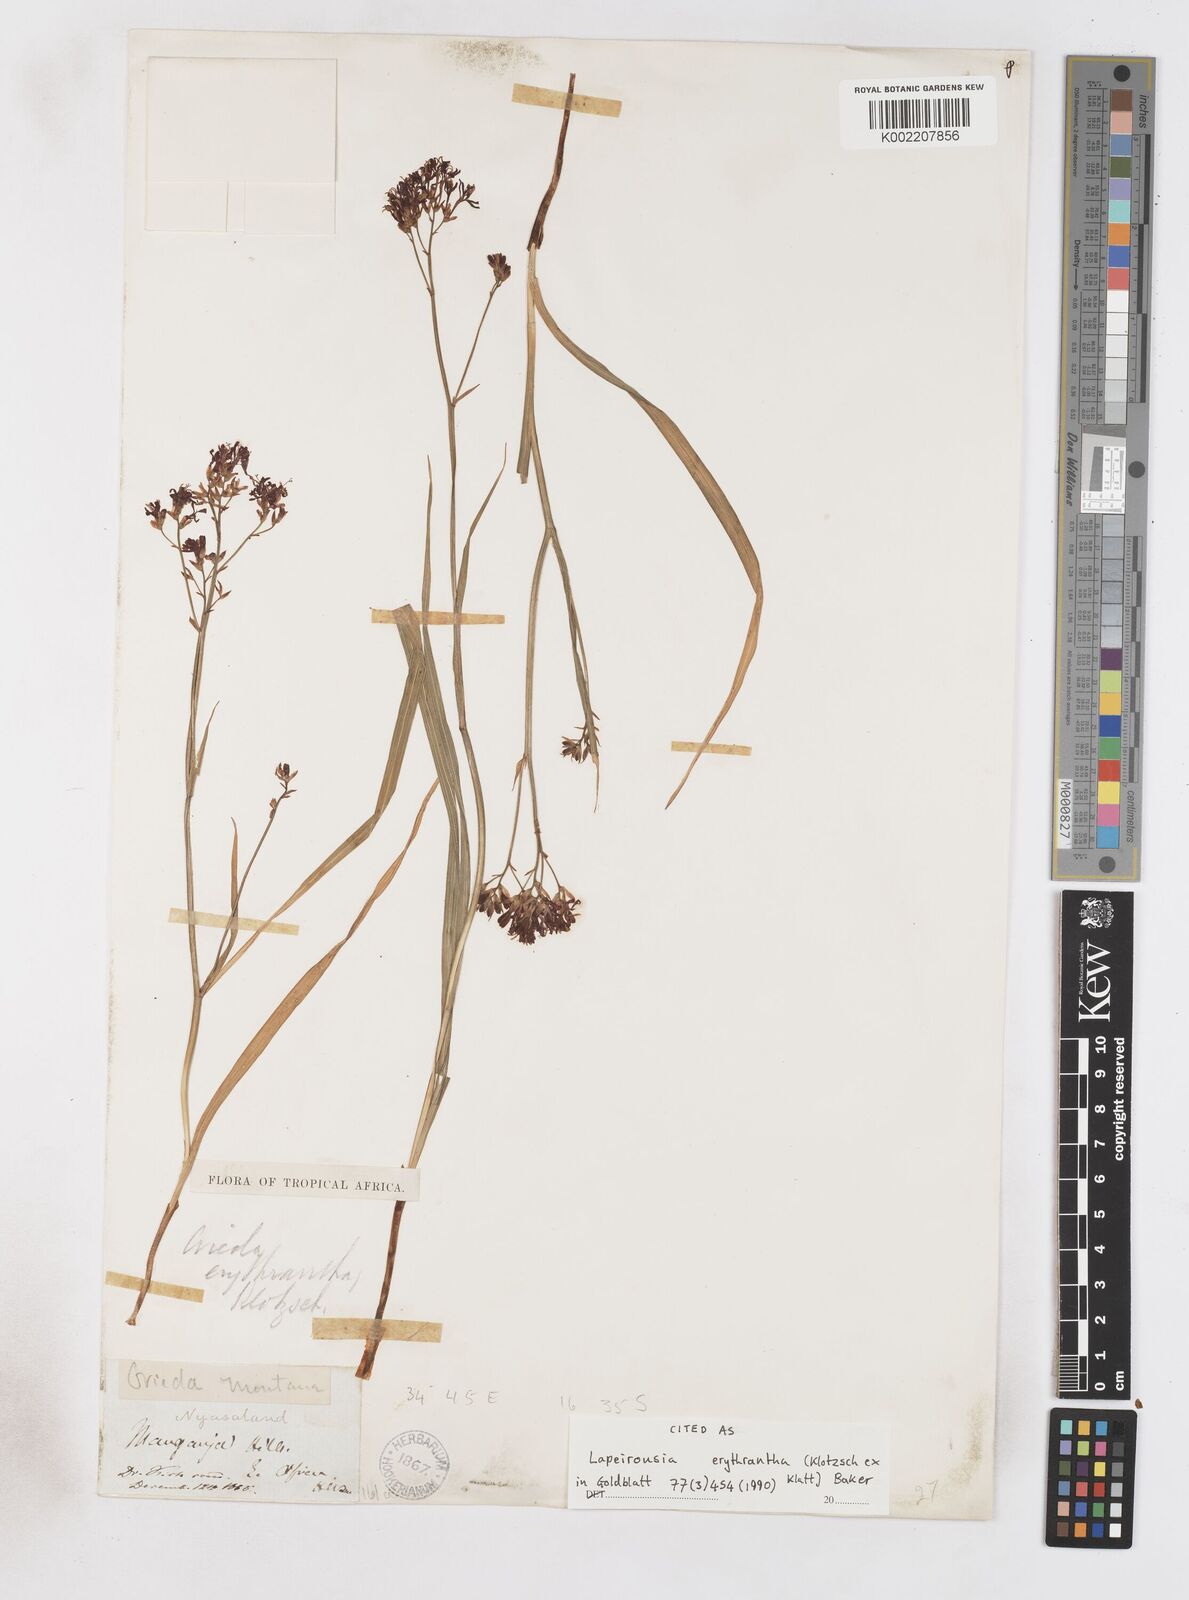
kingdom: Plantae
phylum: Tracheophyta
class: Liliopsida
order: Asparagales
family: Iridaceae
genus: Afrosolen
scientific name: Afrosolen erythranthus
